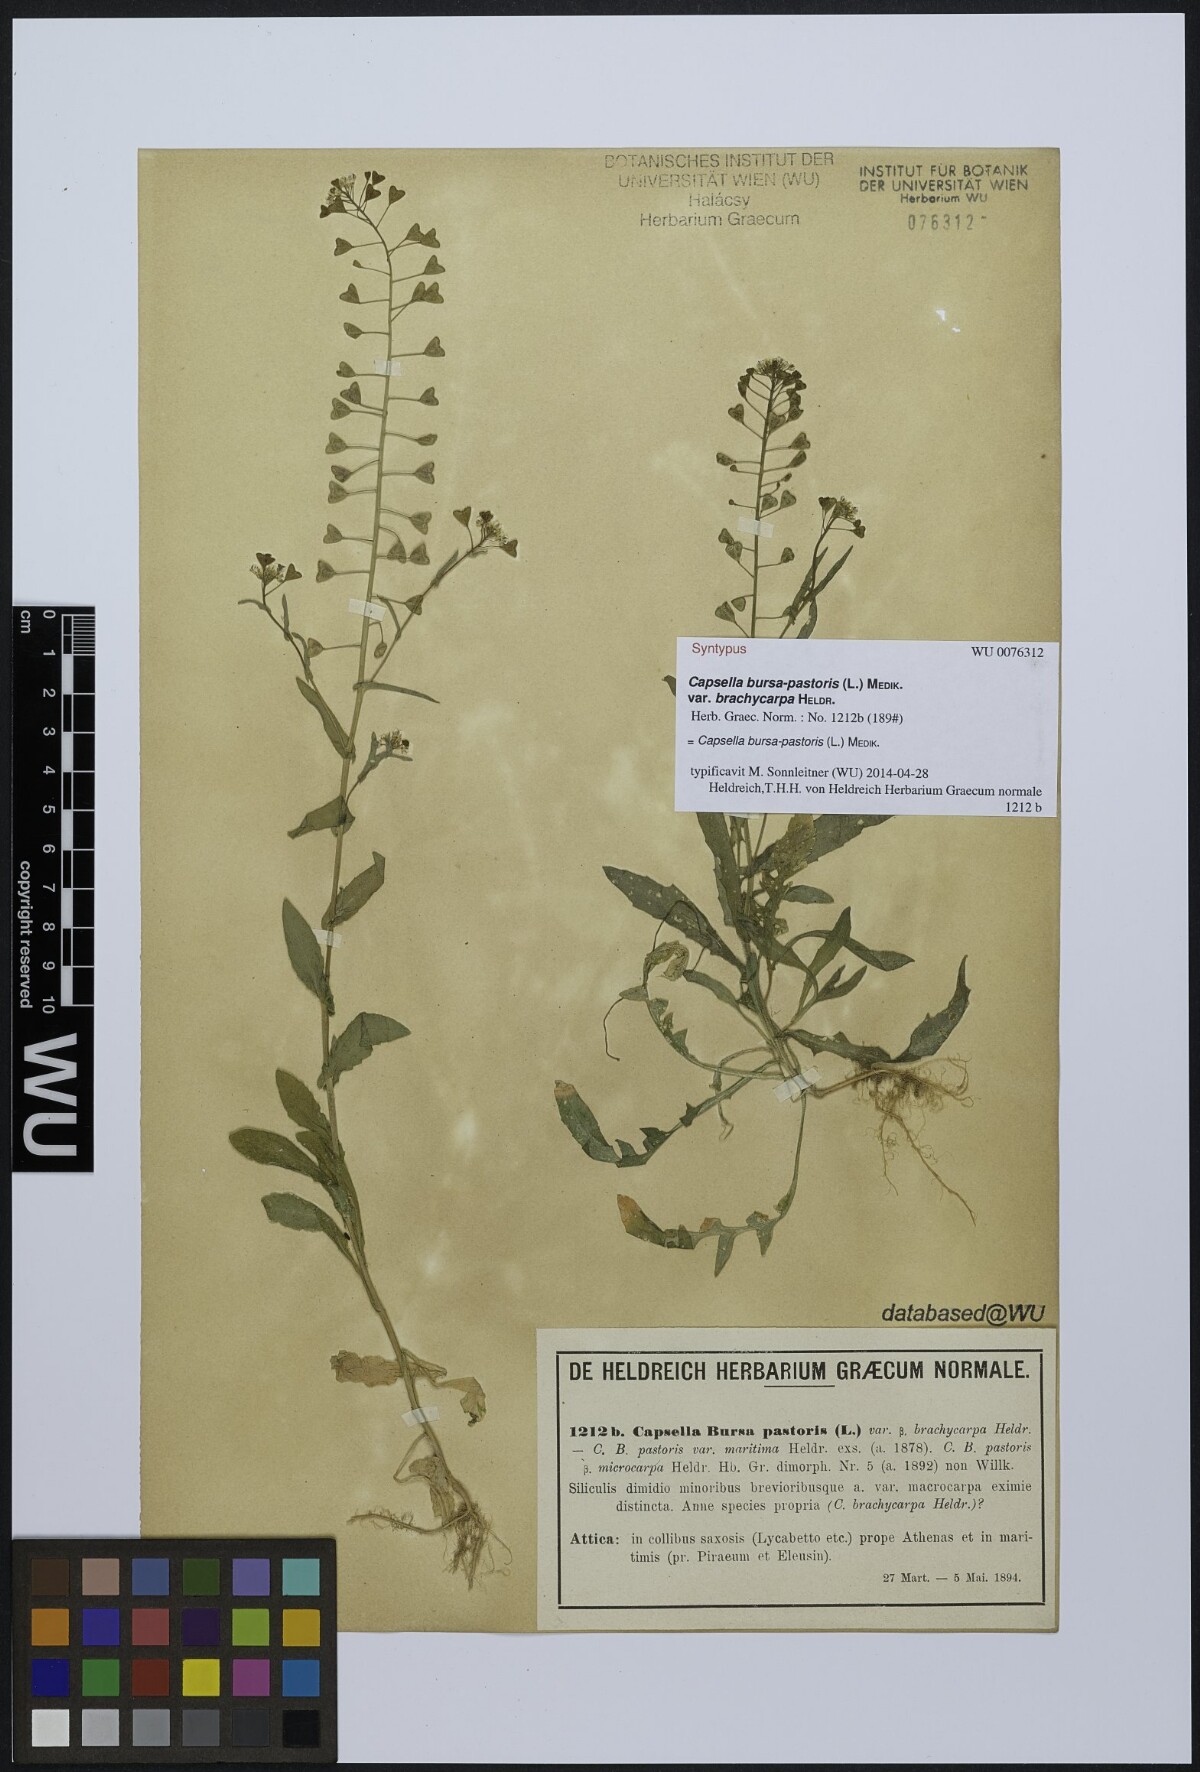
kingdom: Plantae
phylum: Tracheophyta
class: Magnoliopsida
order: Brassicales
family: Brassicaceae
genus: Capsella
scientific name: Capsella bursa-pastoris
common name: Shepherd's purse
